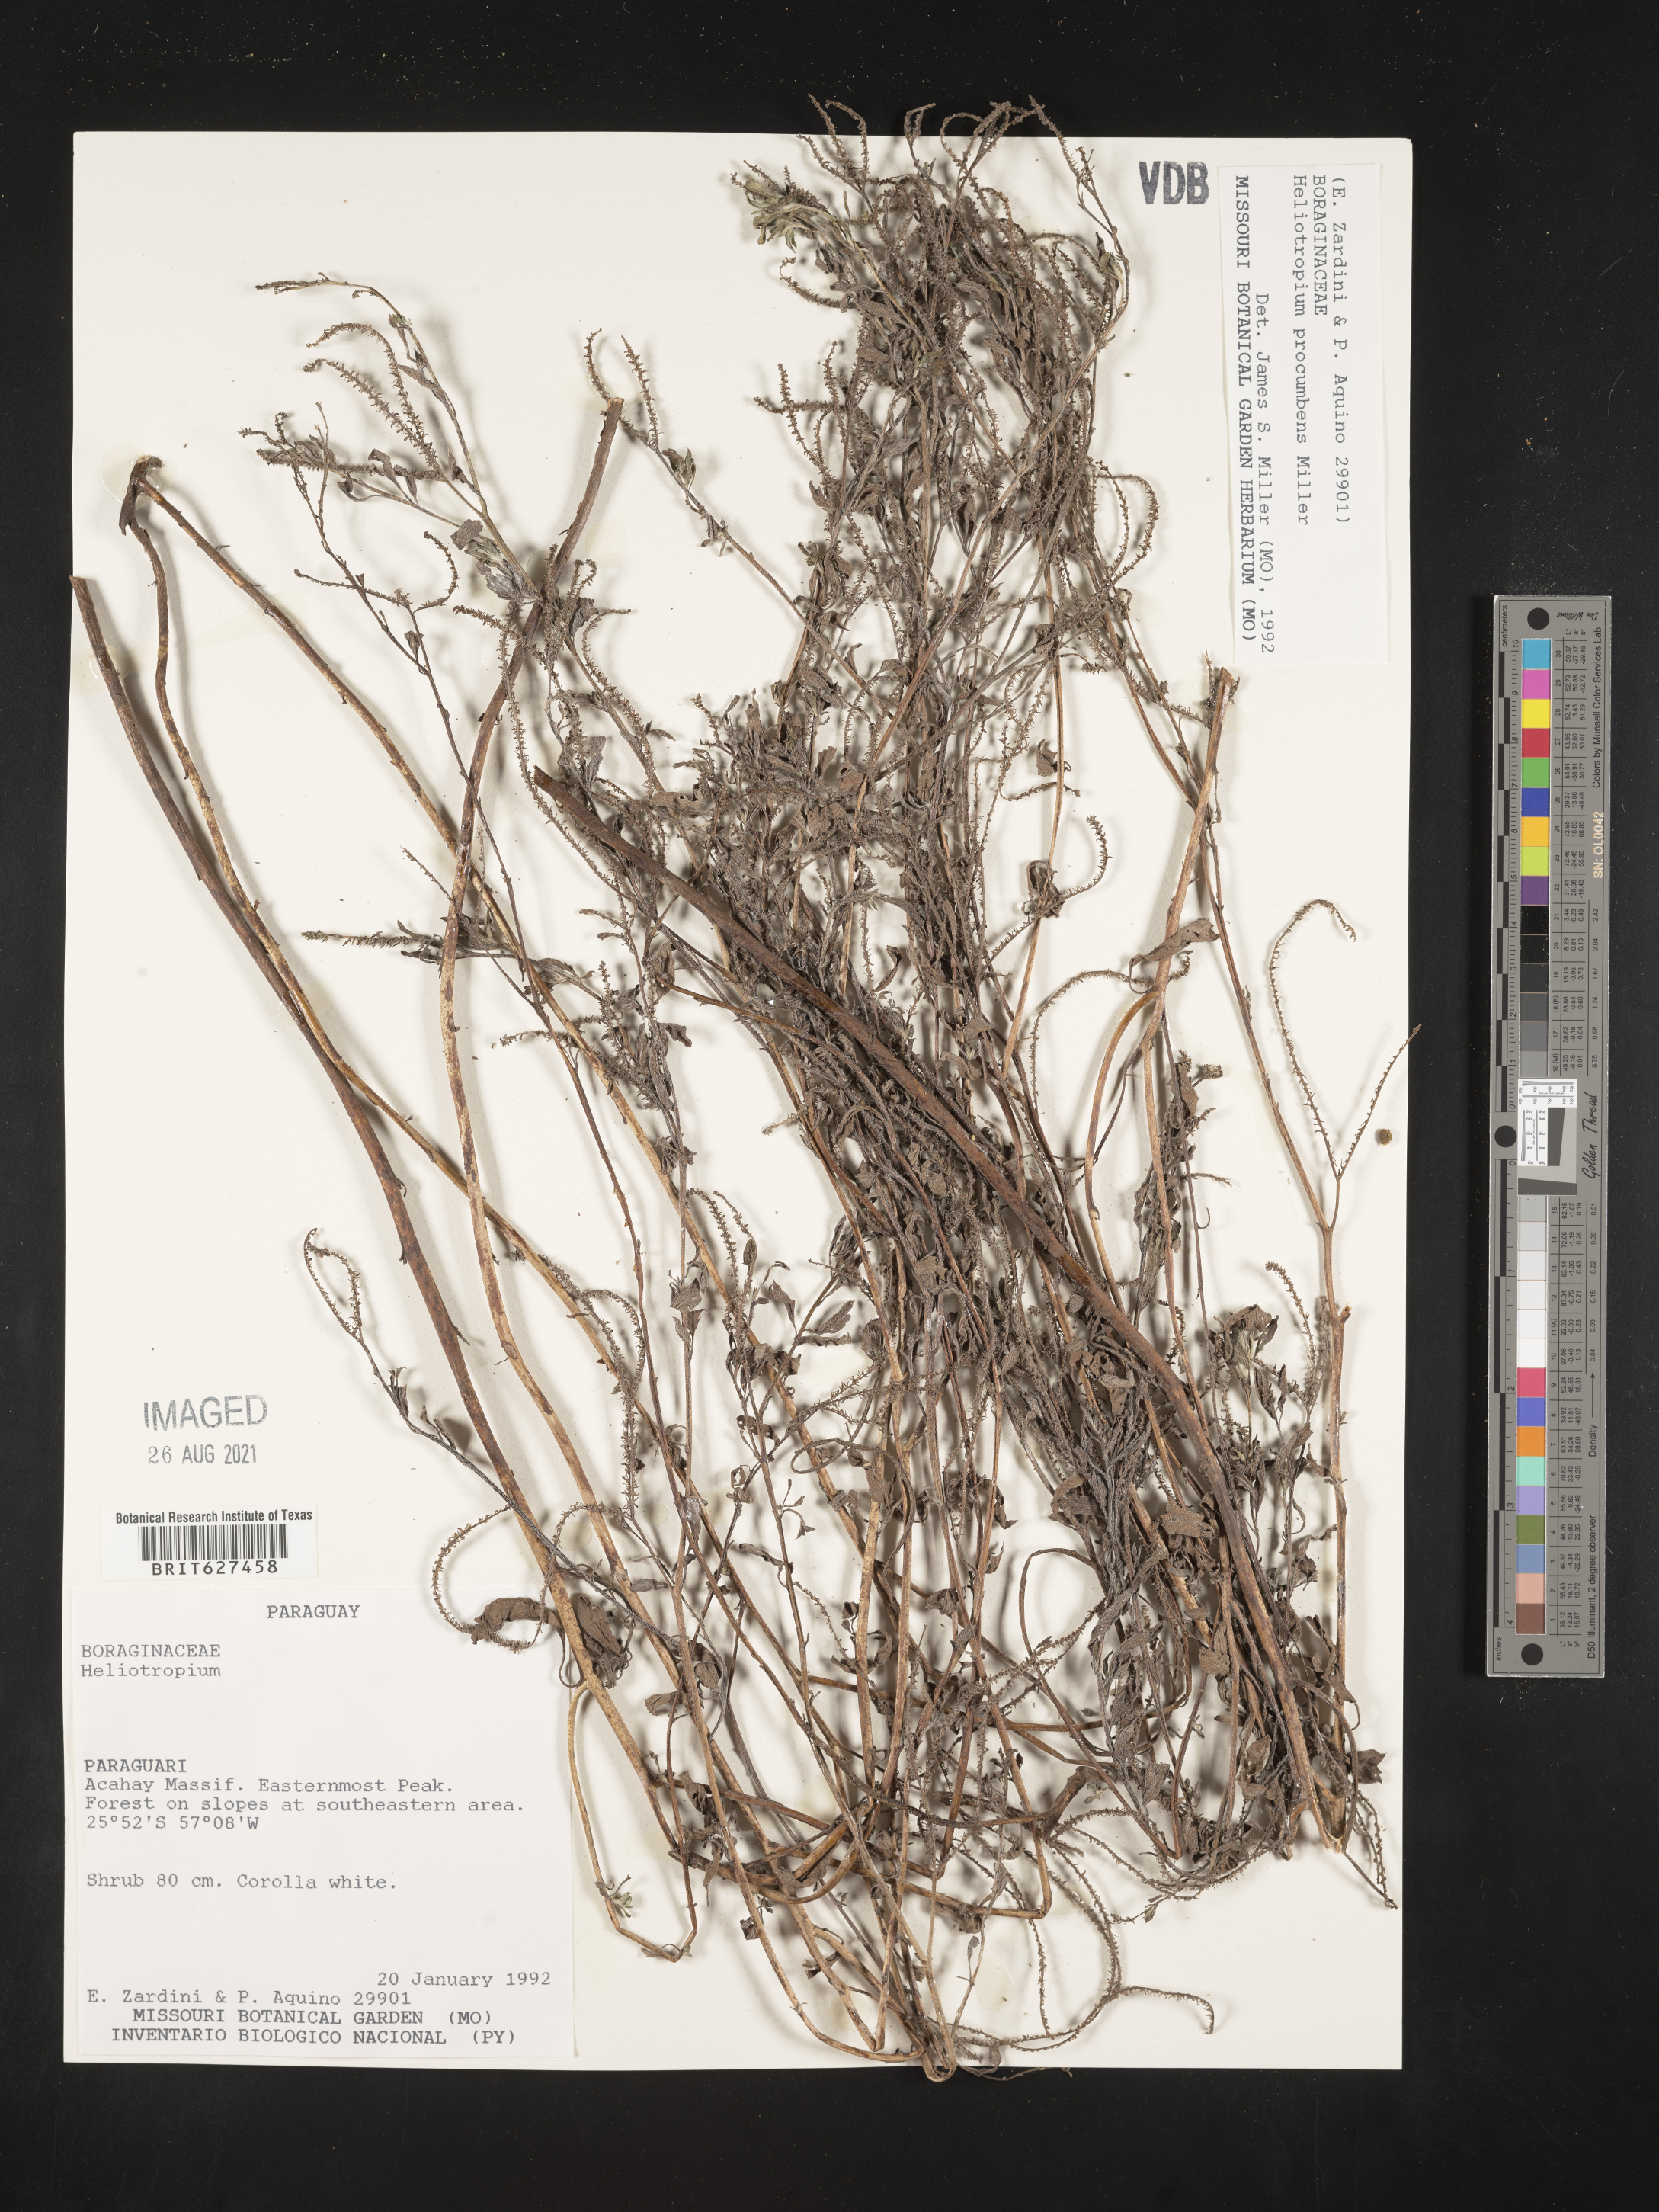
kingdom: Plantae
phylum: Tracheophyta
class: Magnoliopsida
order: Boraginales
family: Heliotropiaceae
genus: Heliotropium
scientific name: Heliotropium
